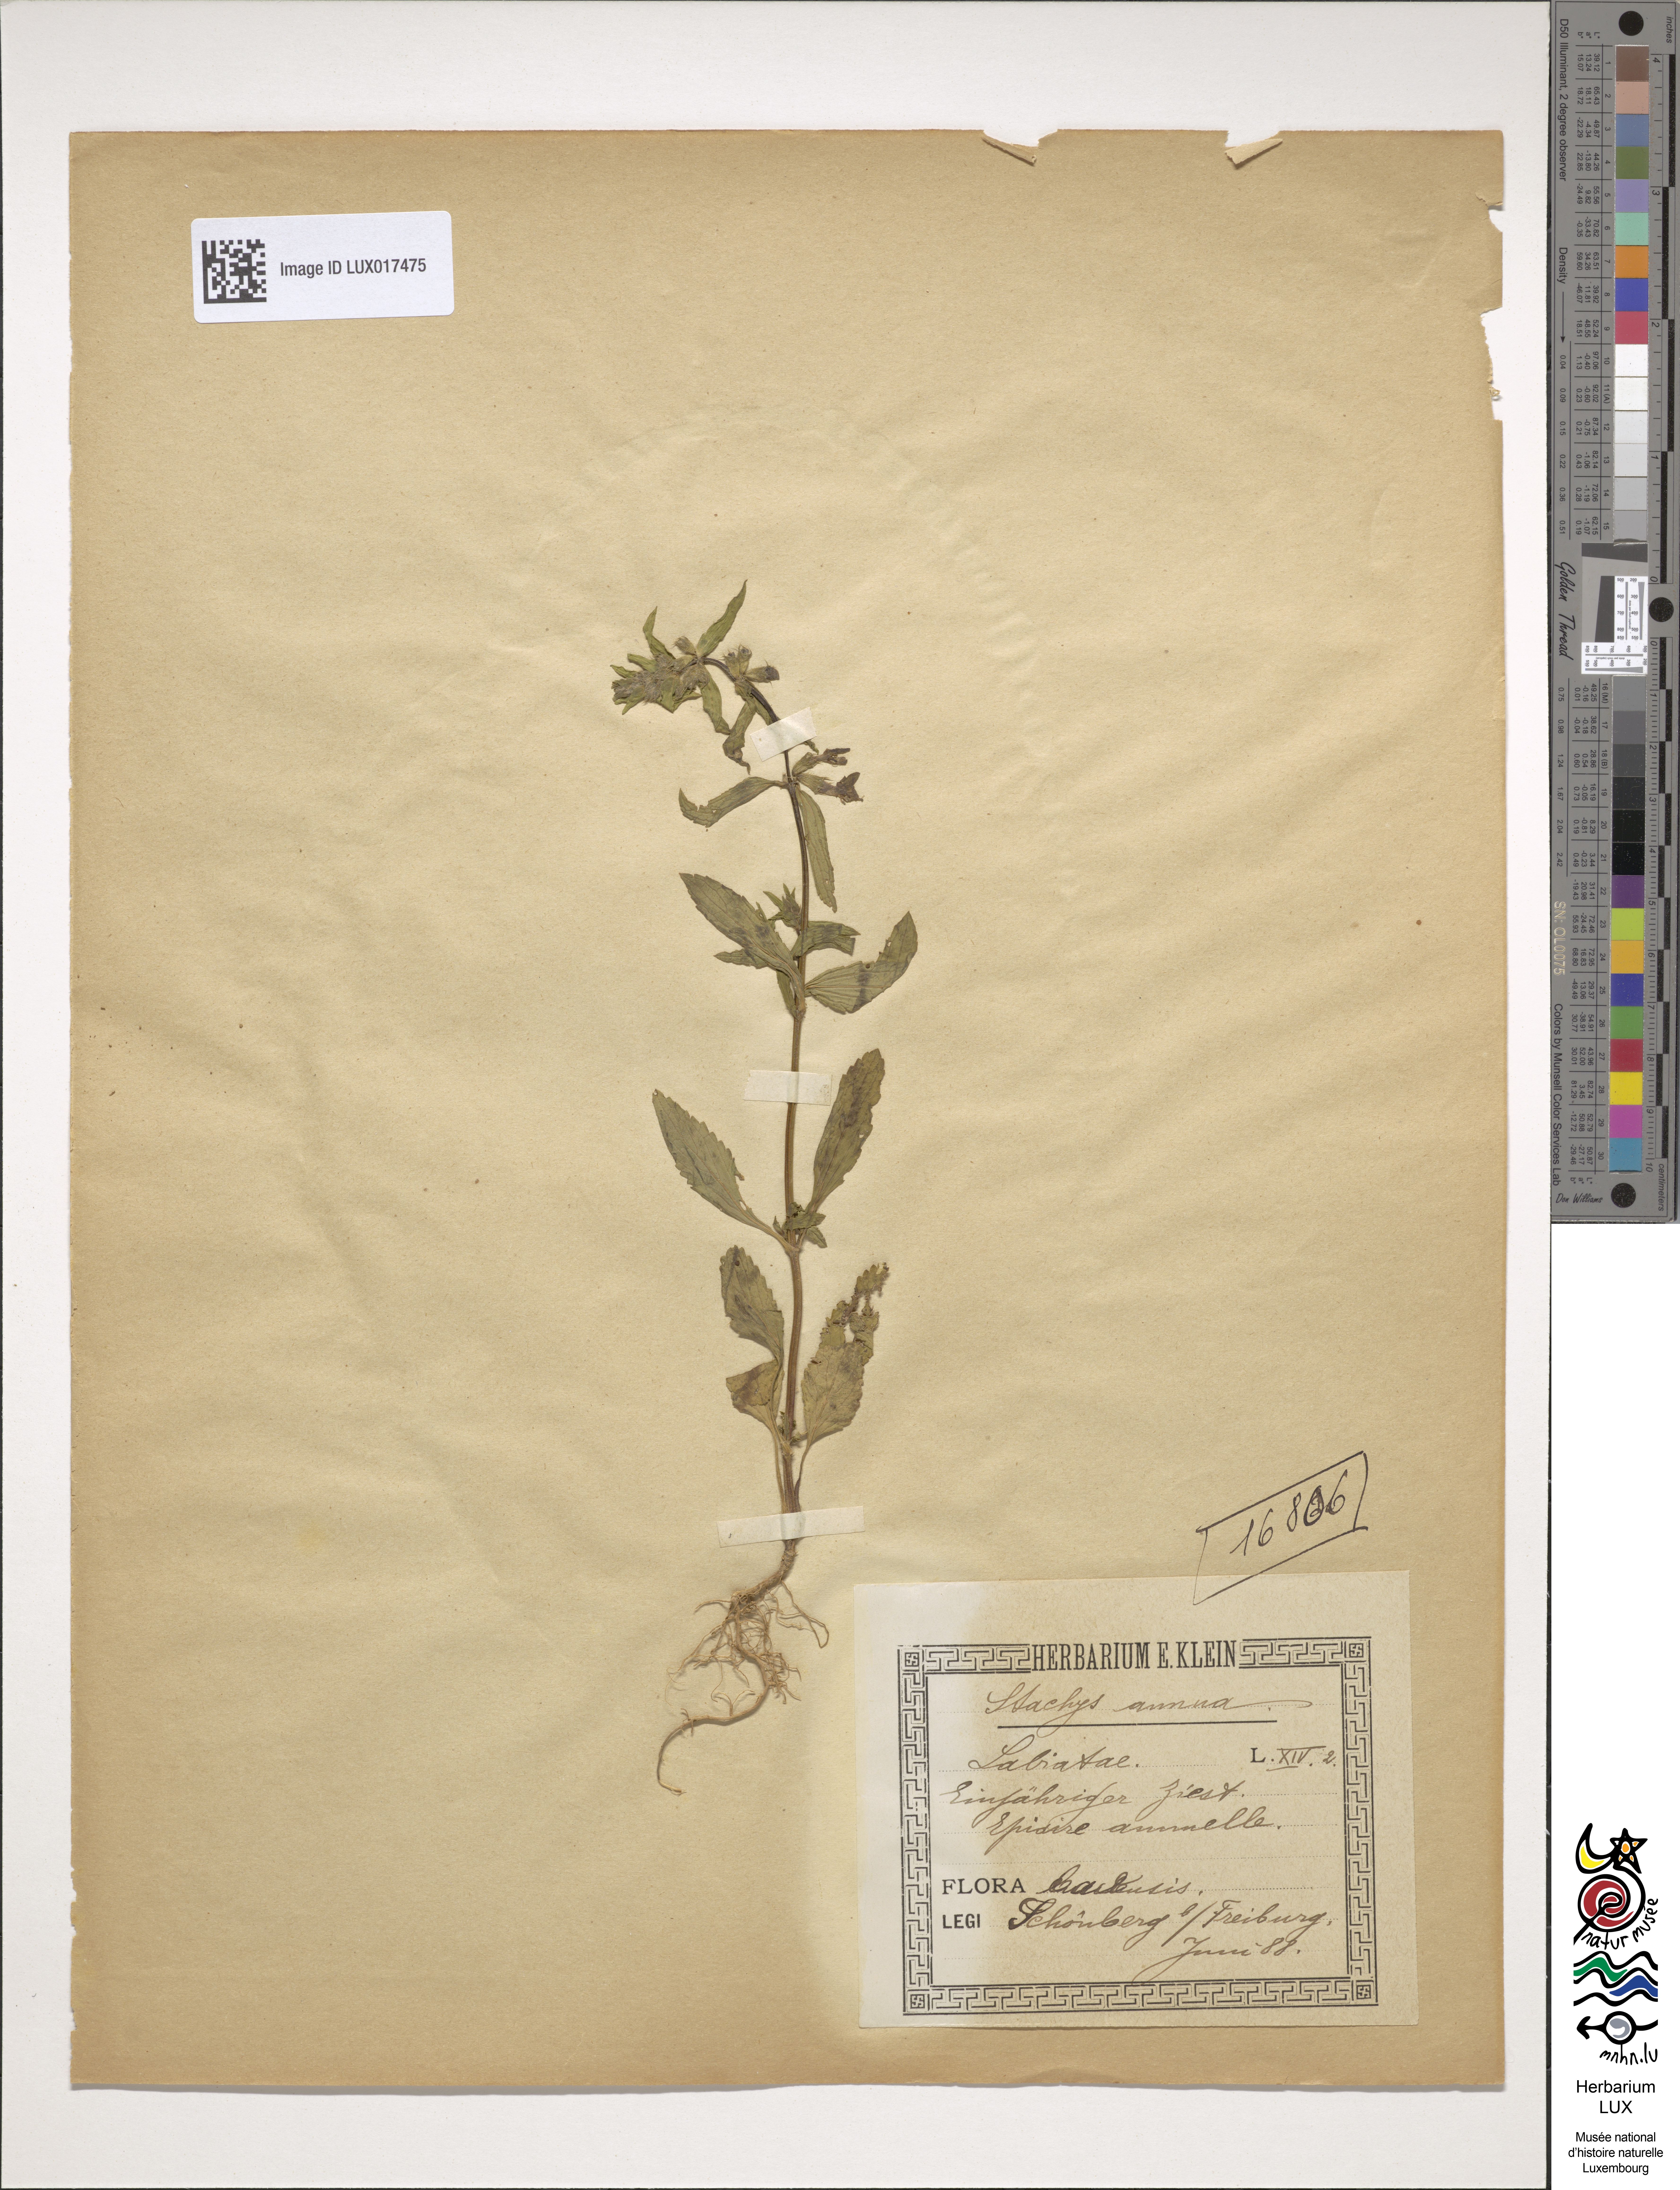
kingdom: Plantae
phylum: Tracheophyta
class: Magnoliopsida
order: Lamiales
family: Lamiaceae
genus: Stachys
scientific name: Stachys annua
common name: Annual yellow-woundwort
